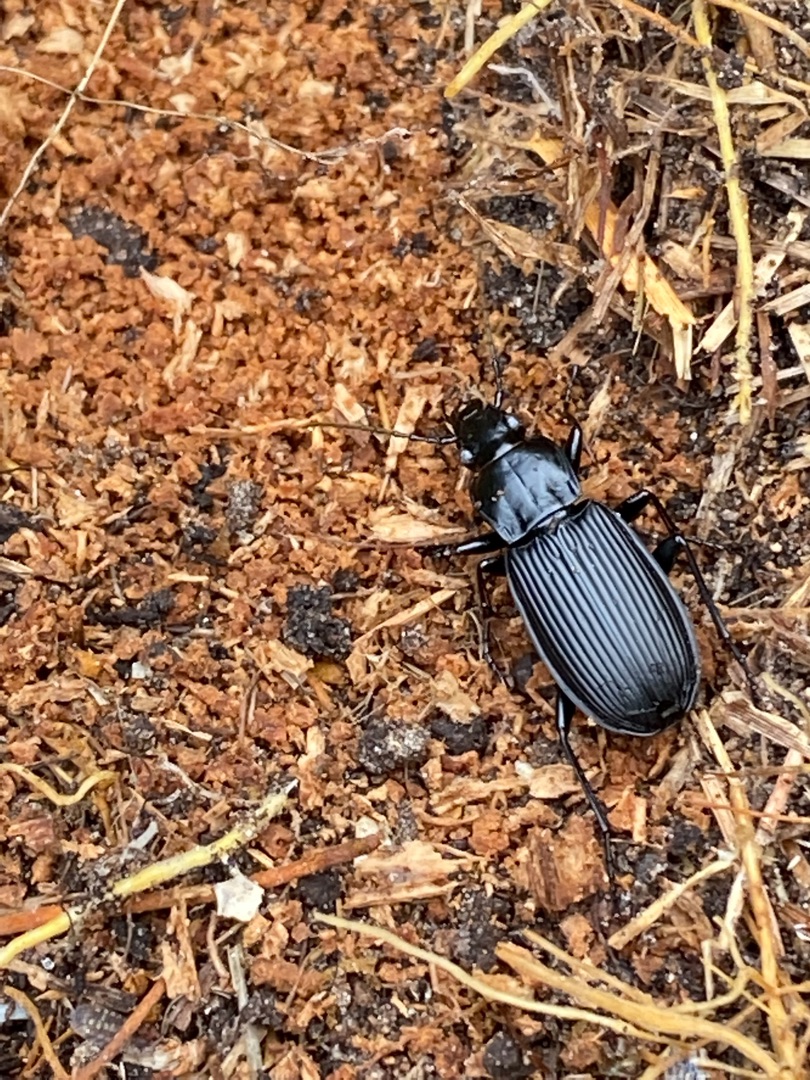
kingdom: Animalia
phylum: Arthropoda
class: Insecta
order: Coleoptera
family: Carabidae
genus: Pterostichus
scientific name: Pterostichus niger
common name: Skovjordløber
